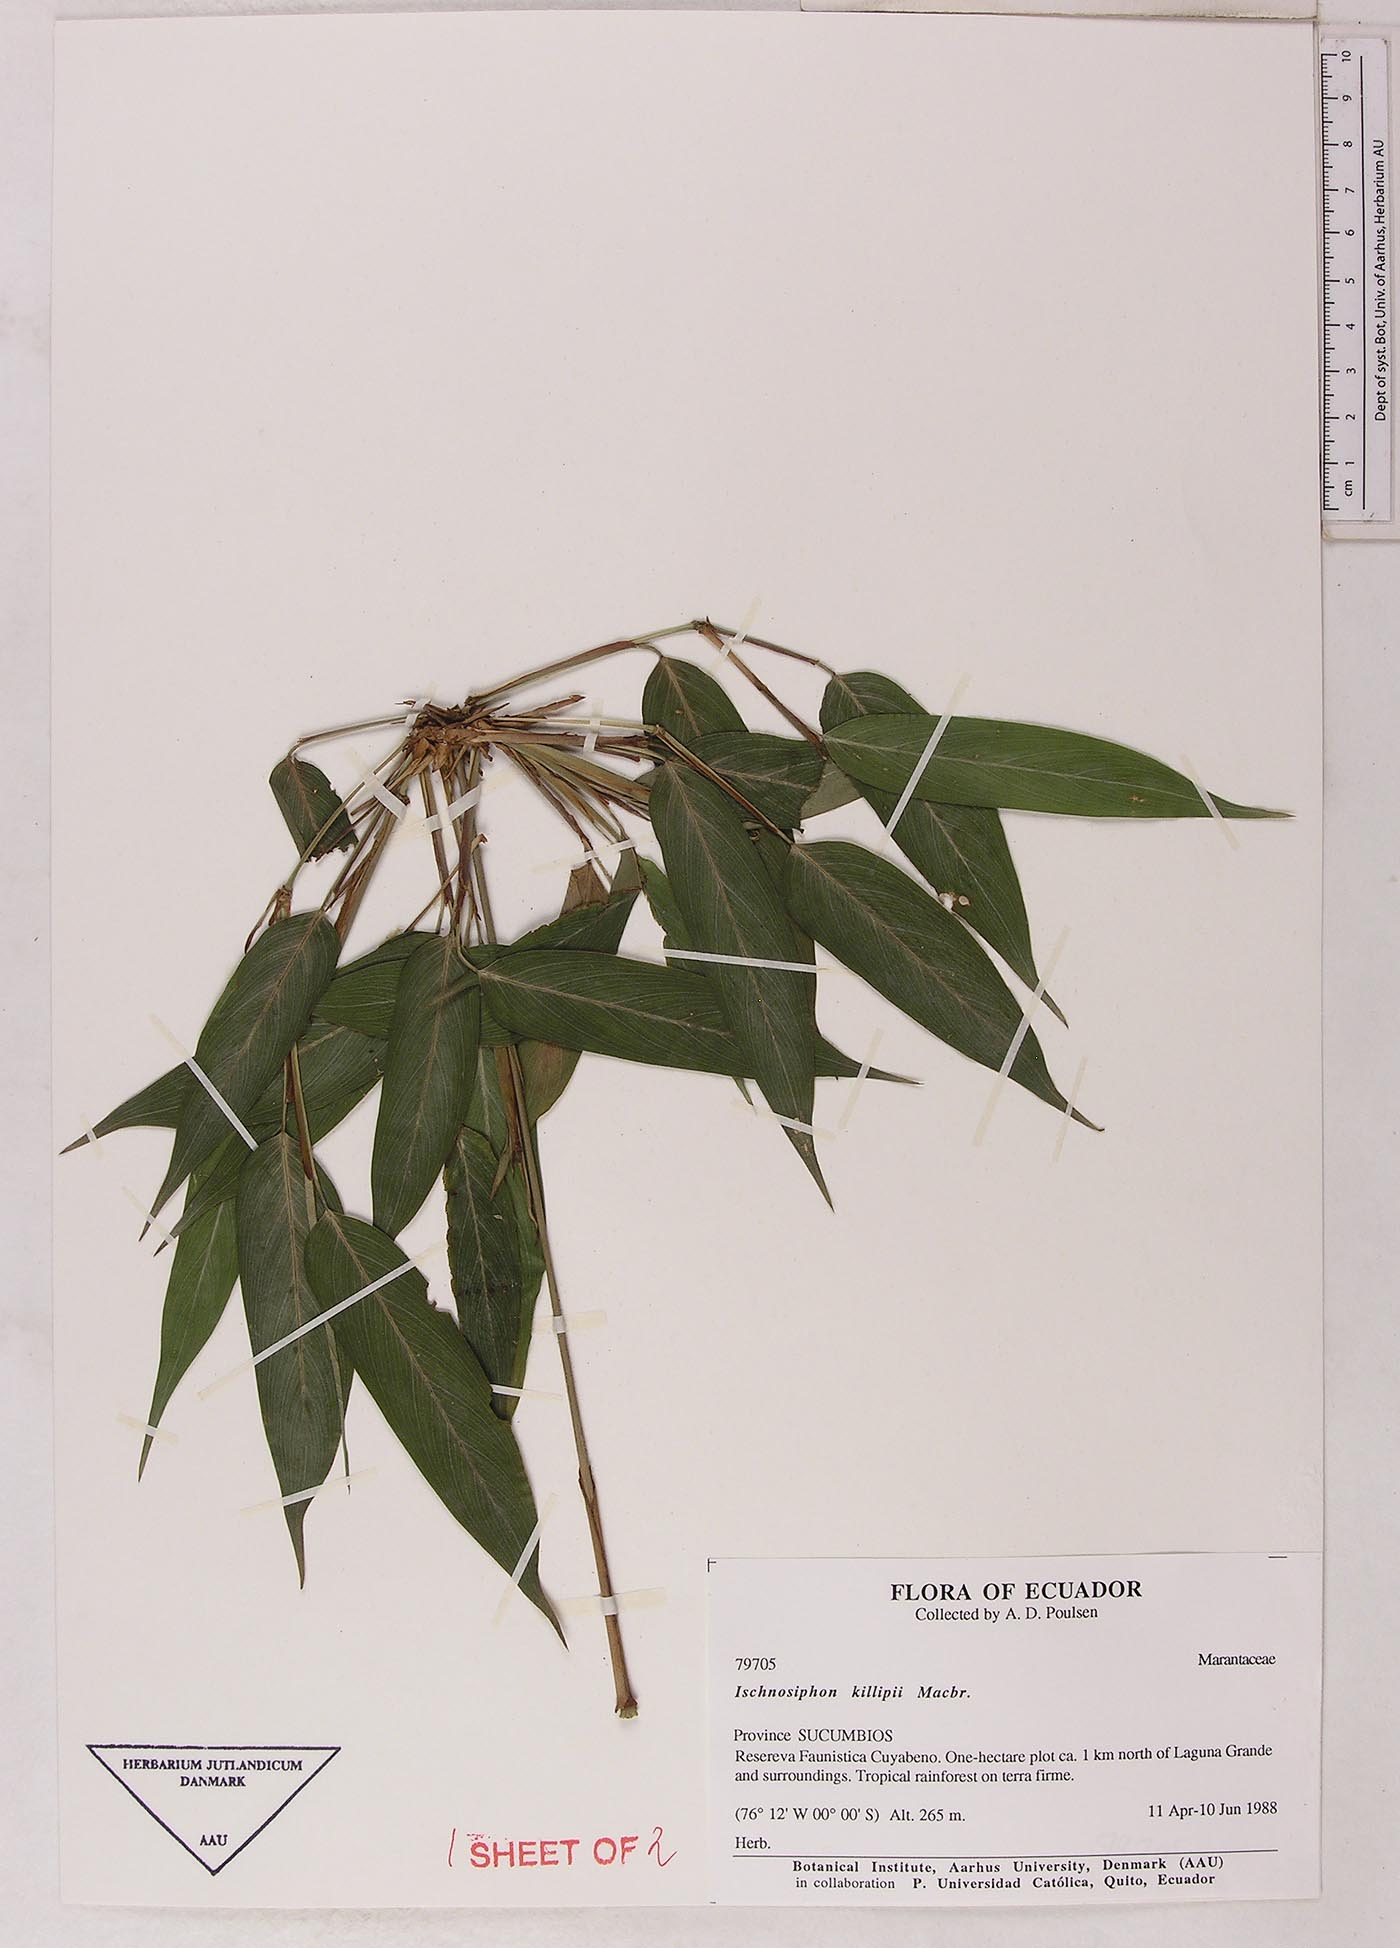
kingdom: Plantae
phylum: Tracheophyta
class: Liliopsida
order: Zingiberales
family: Marantaceae
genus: Ischnosiphon
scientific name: Ischnosiphon killipii
